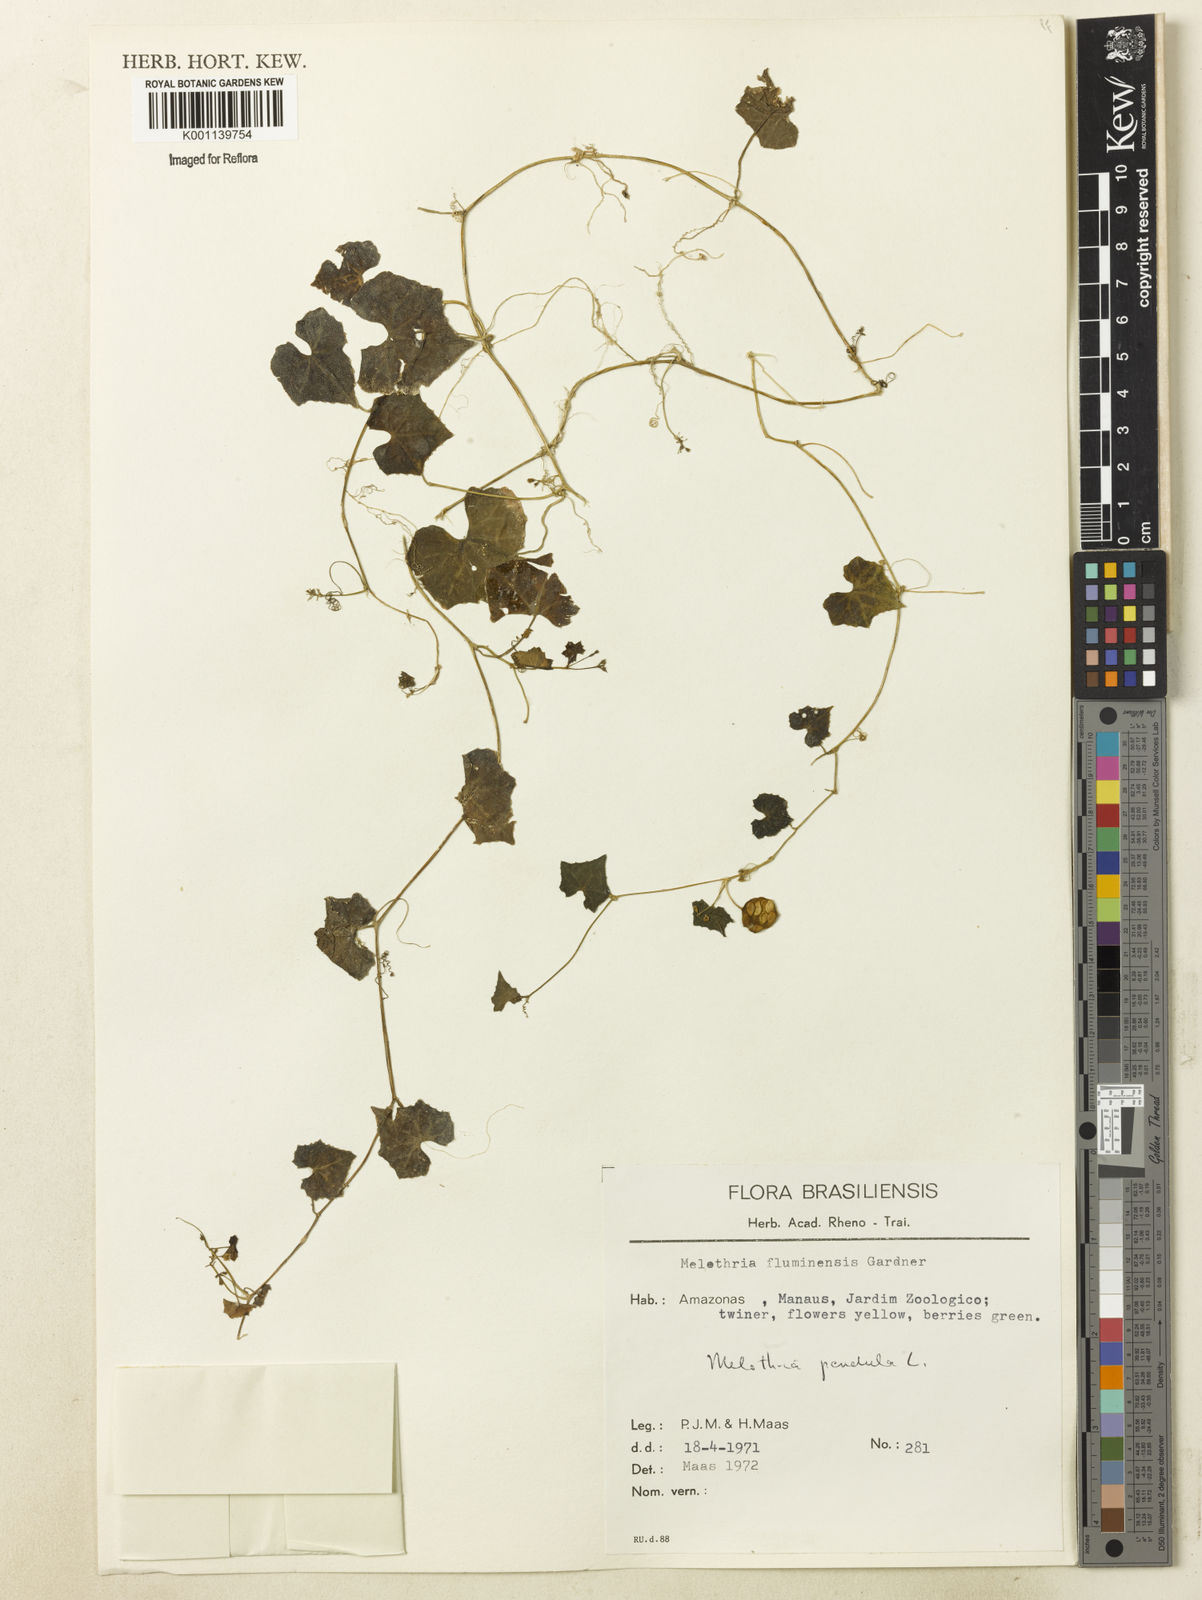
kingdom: Plantae
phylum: Tracheophyta
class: Magnoliopsida
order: Cucurbitales
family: Cucurbitaceae
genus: Melothria
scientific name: Melothria pendula
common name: Creeping-cucumber
